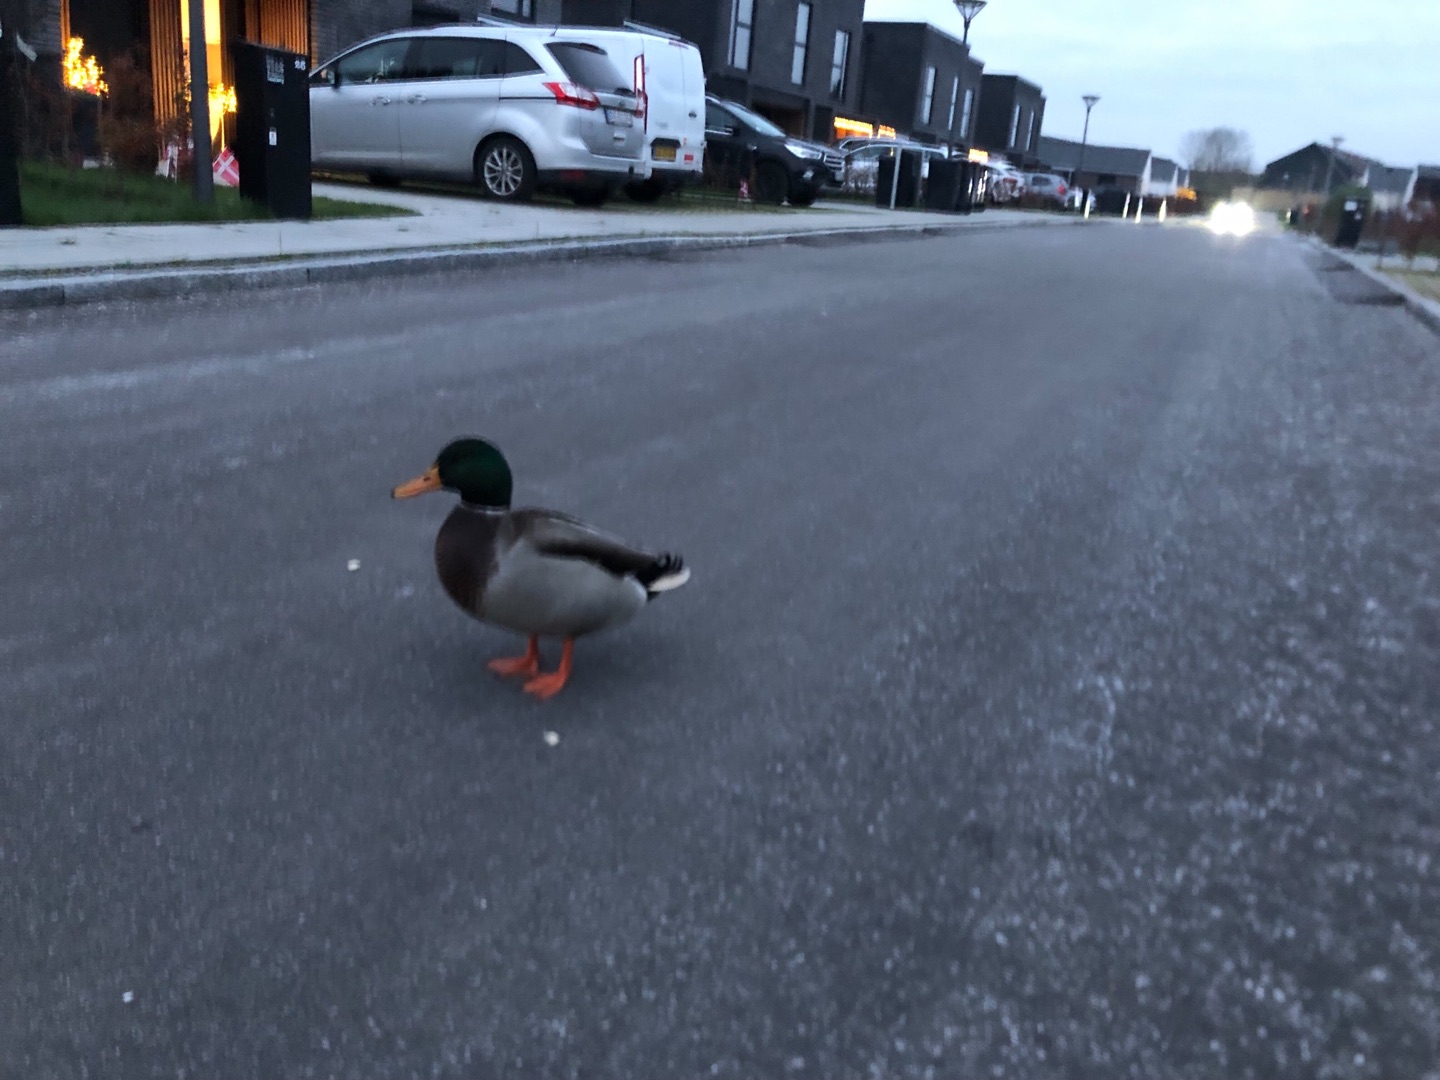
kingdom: Animalia
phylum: Chordata
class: Aves
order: Anseriformes
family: Anatidae
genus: Anas
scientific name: Anas platyrhynchos
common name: Gråand
